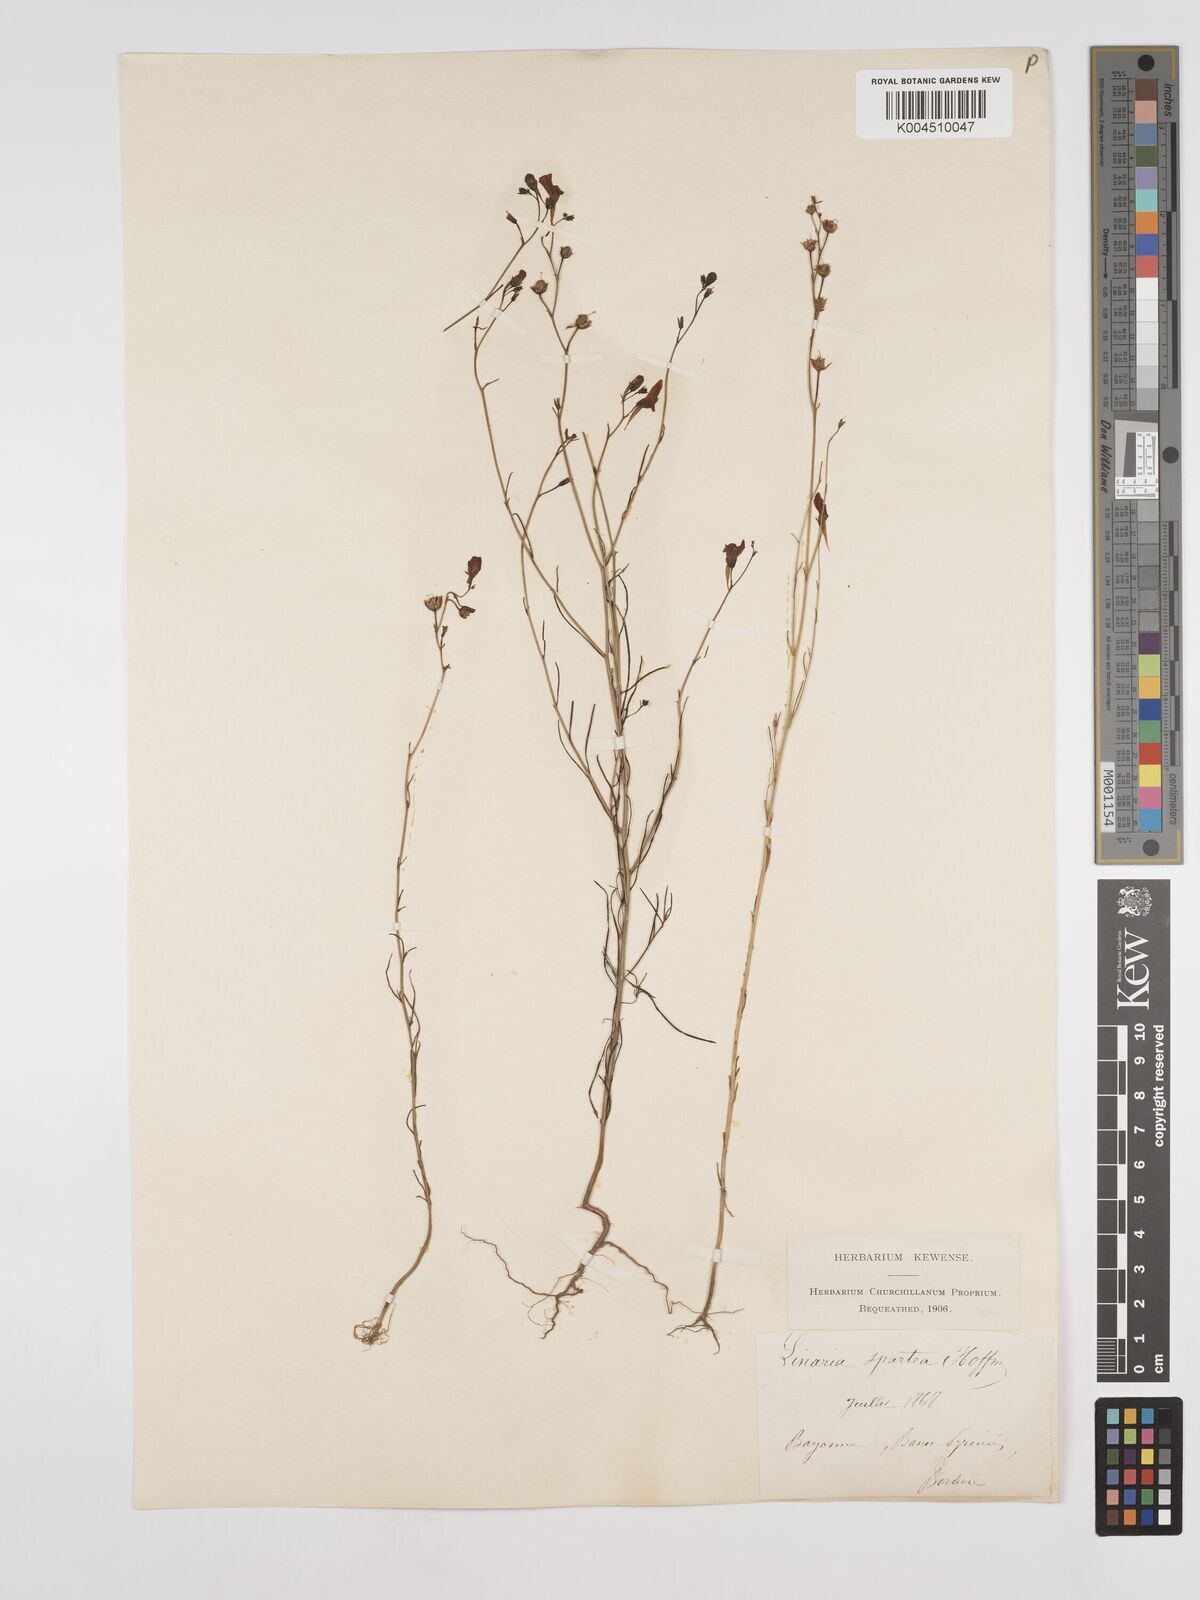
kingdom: Plantae
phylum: Tracheophyta
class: Magnoliopsida
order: Lamiales
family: Plantaginaceae
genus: Linaria
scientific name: Linaria repens
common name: Pale toadflax
